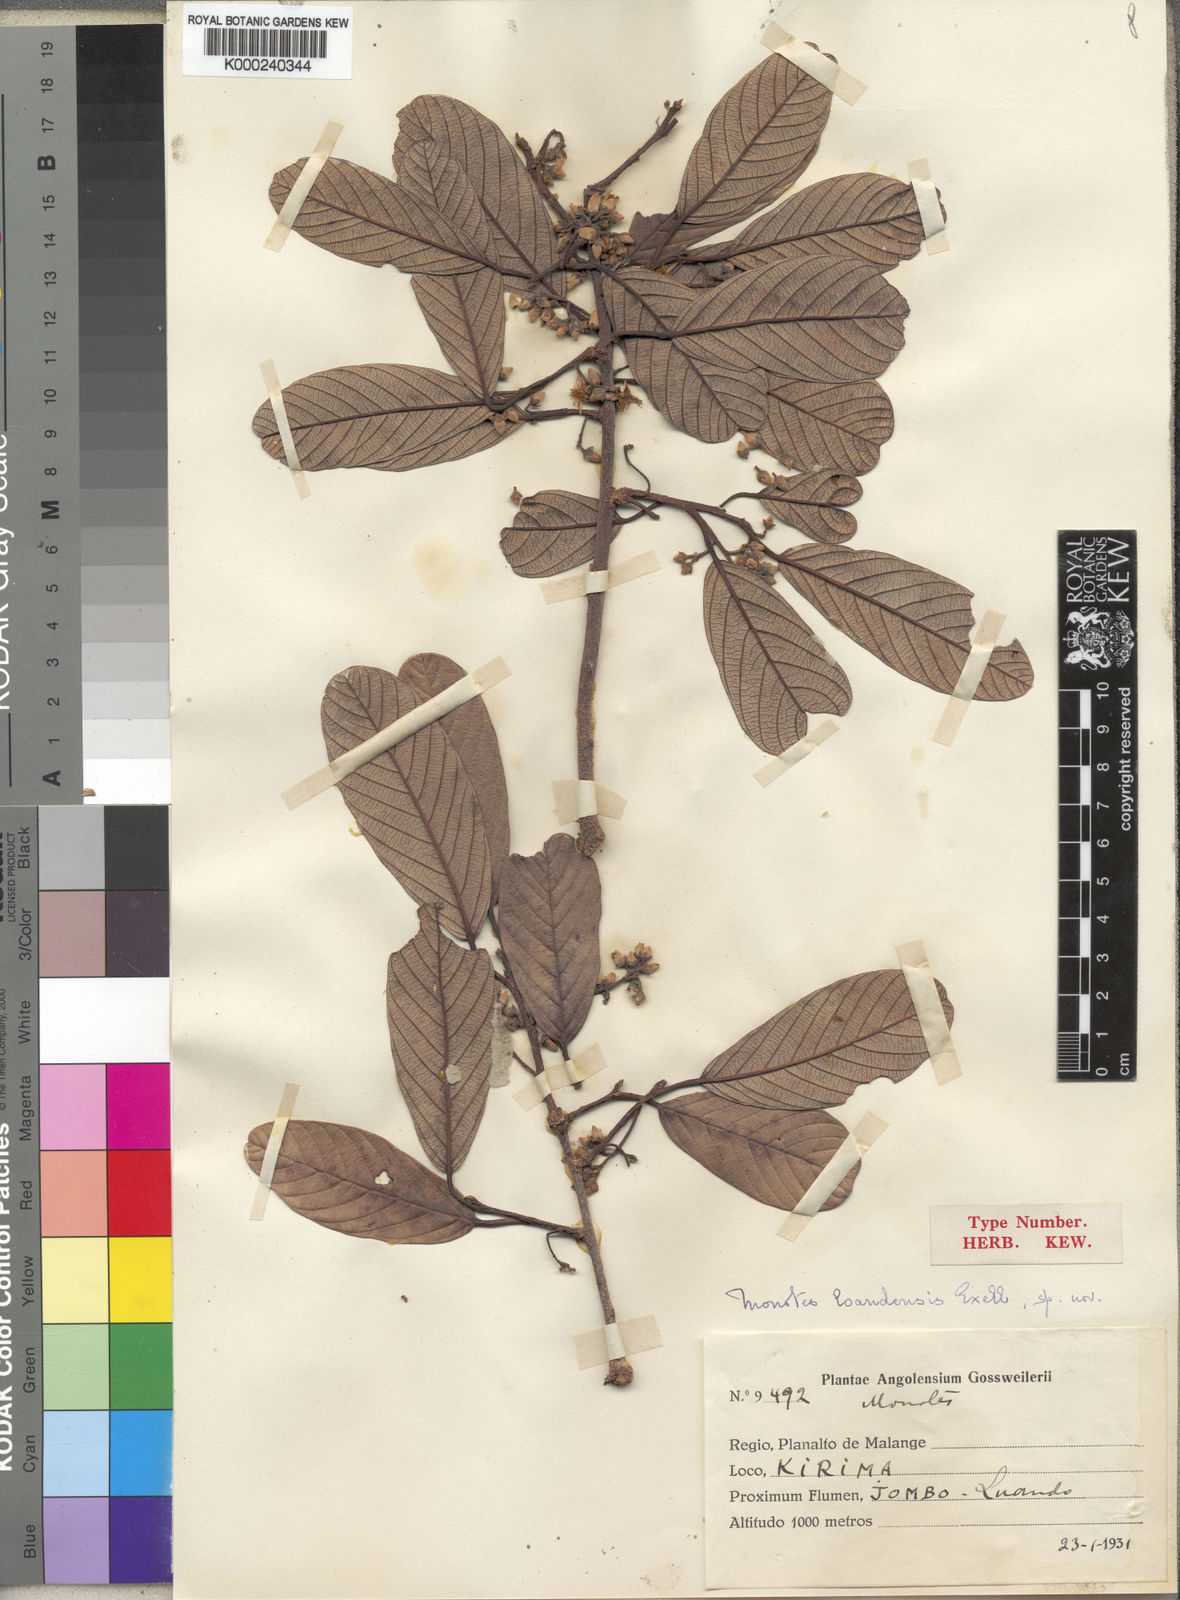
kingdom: Plantae
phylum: Tracheophyta
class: Magnoliopsida
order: Malvales
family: Dipterocarpaceae
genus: Monotes
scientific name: Monotes hypoleucus
